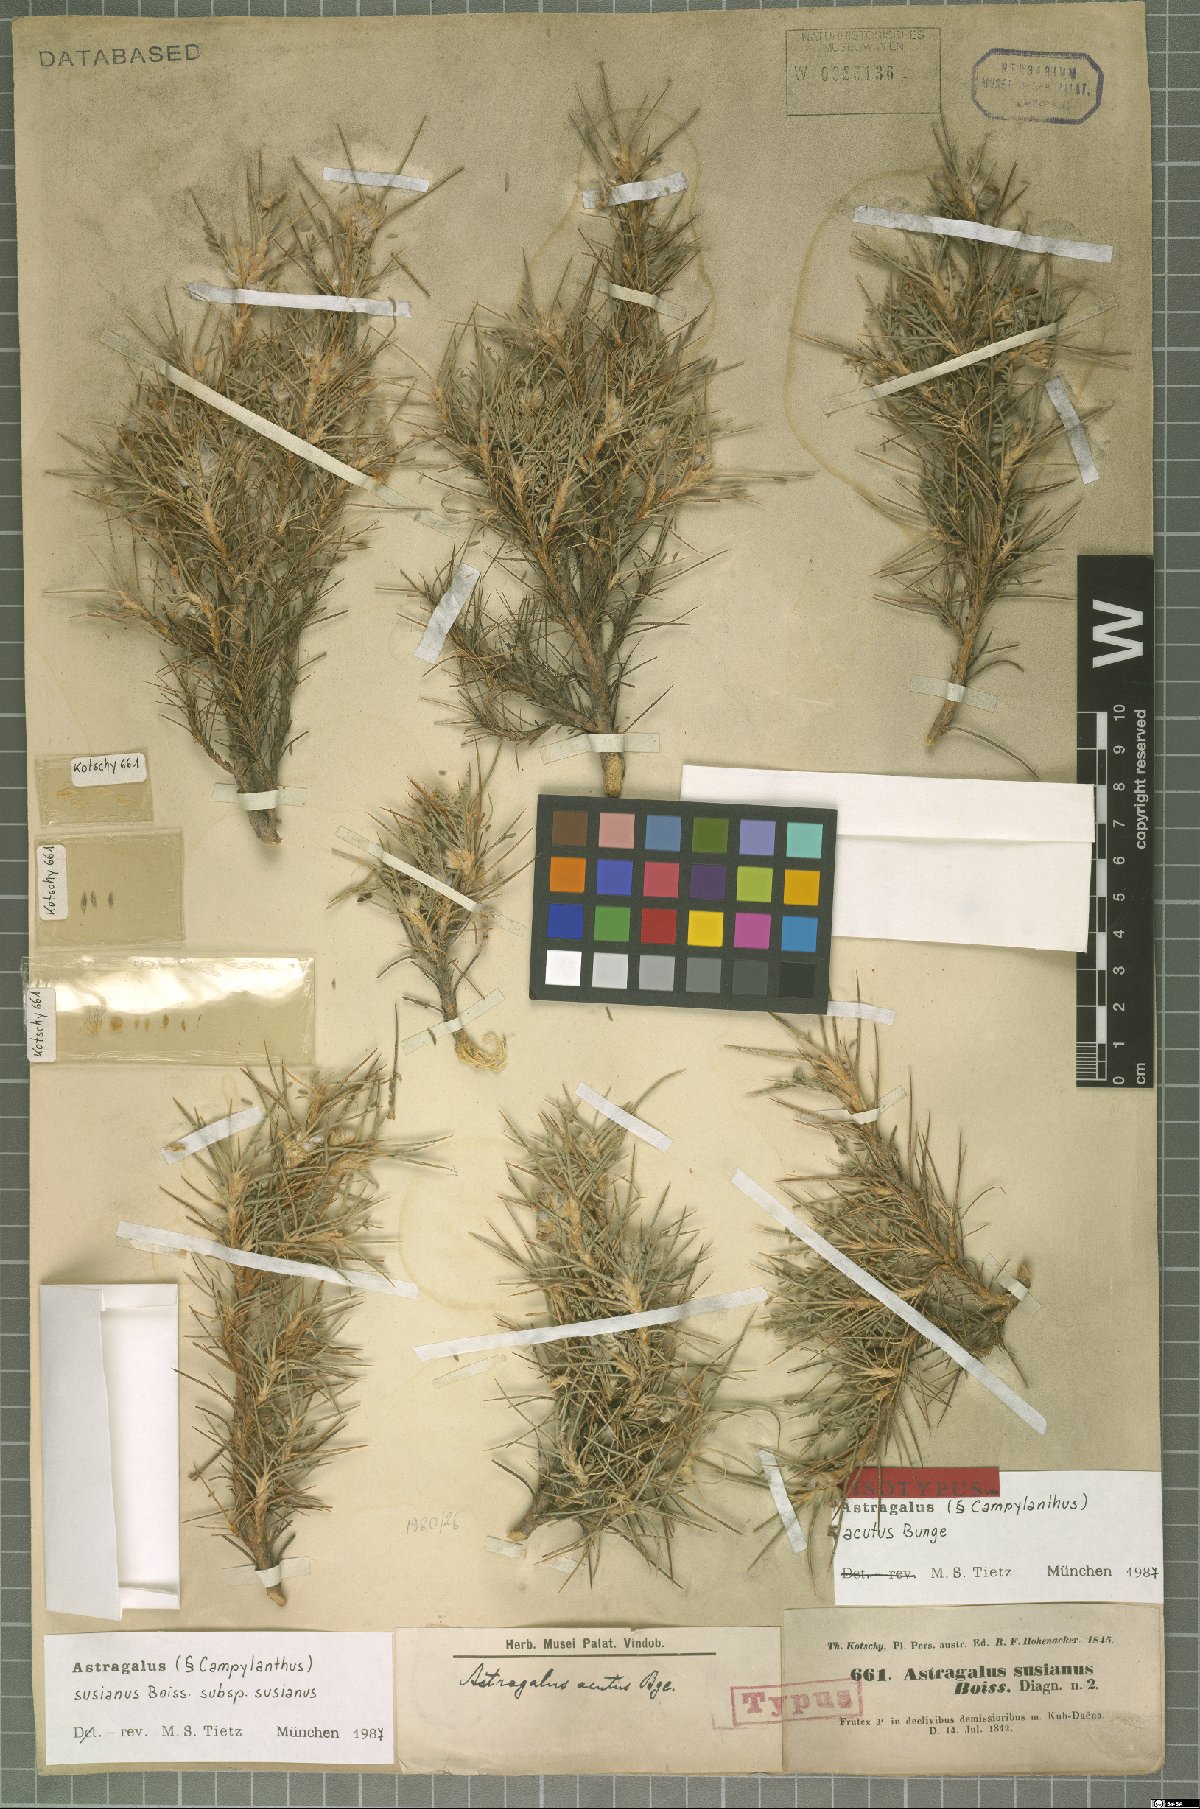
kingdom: Plantae
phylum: Tracheophyta
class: Magnoliopsida
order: Fabales
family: Fabaceae
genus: Astragalus
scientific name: Astragalus susianus
